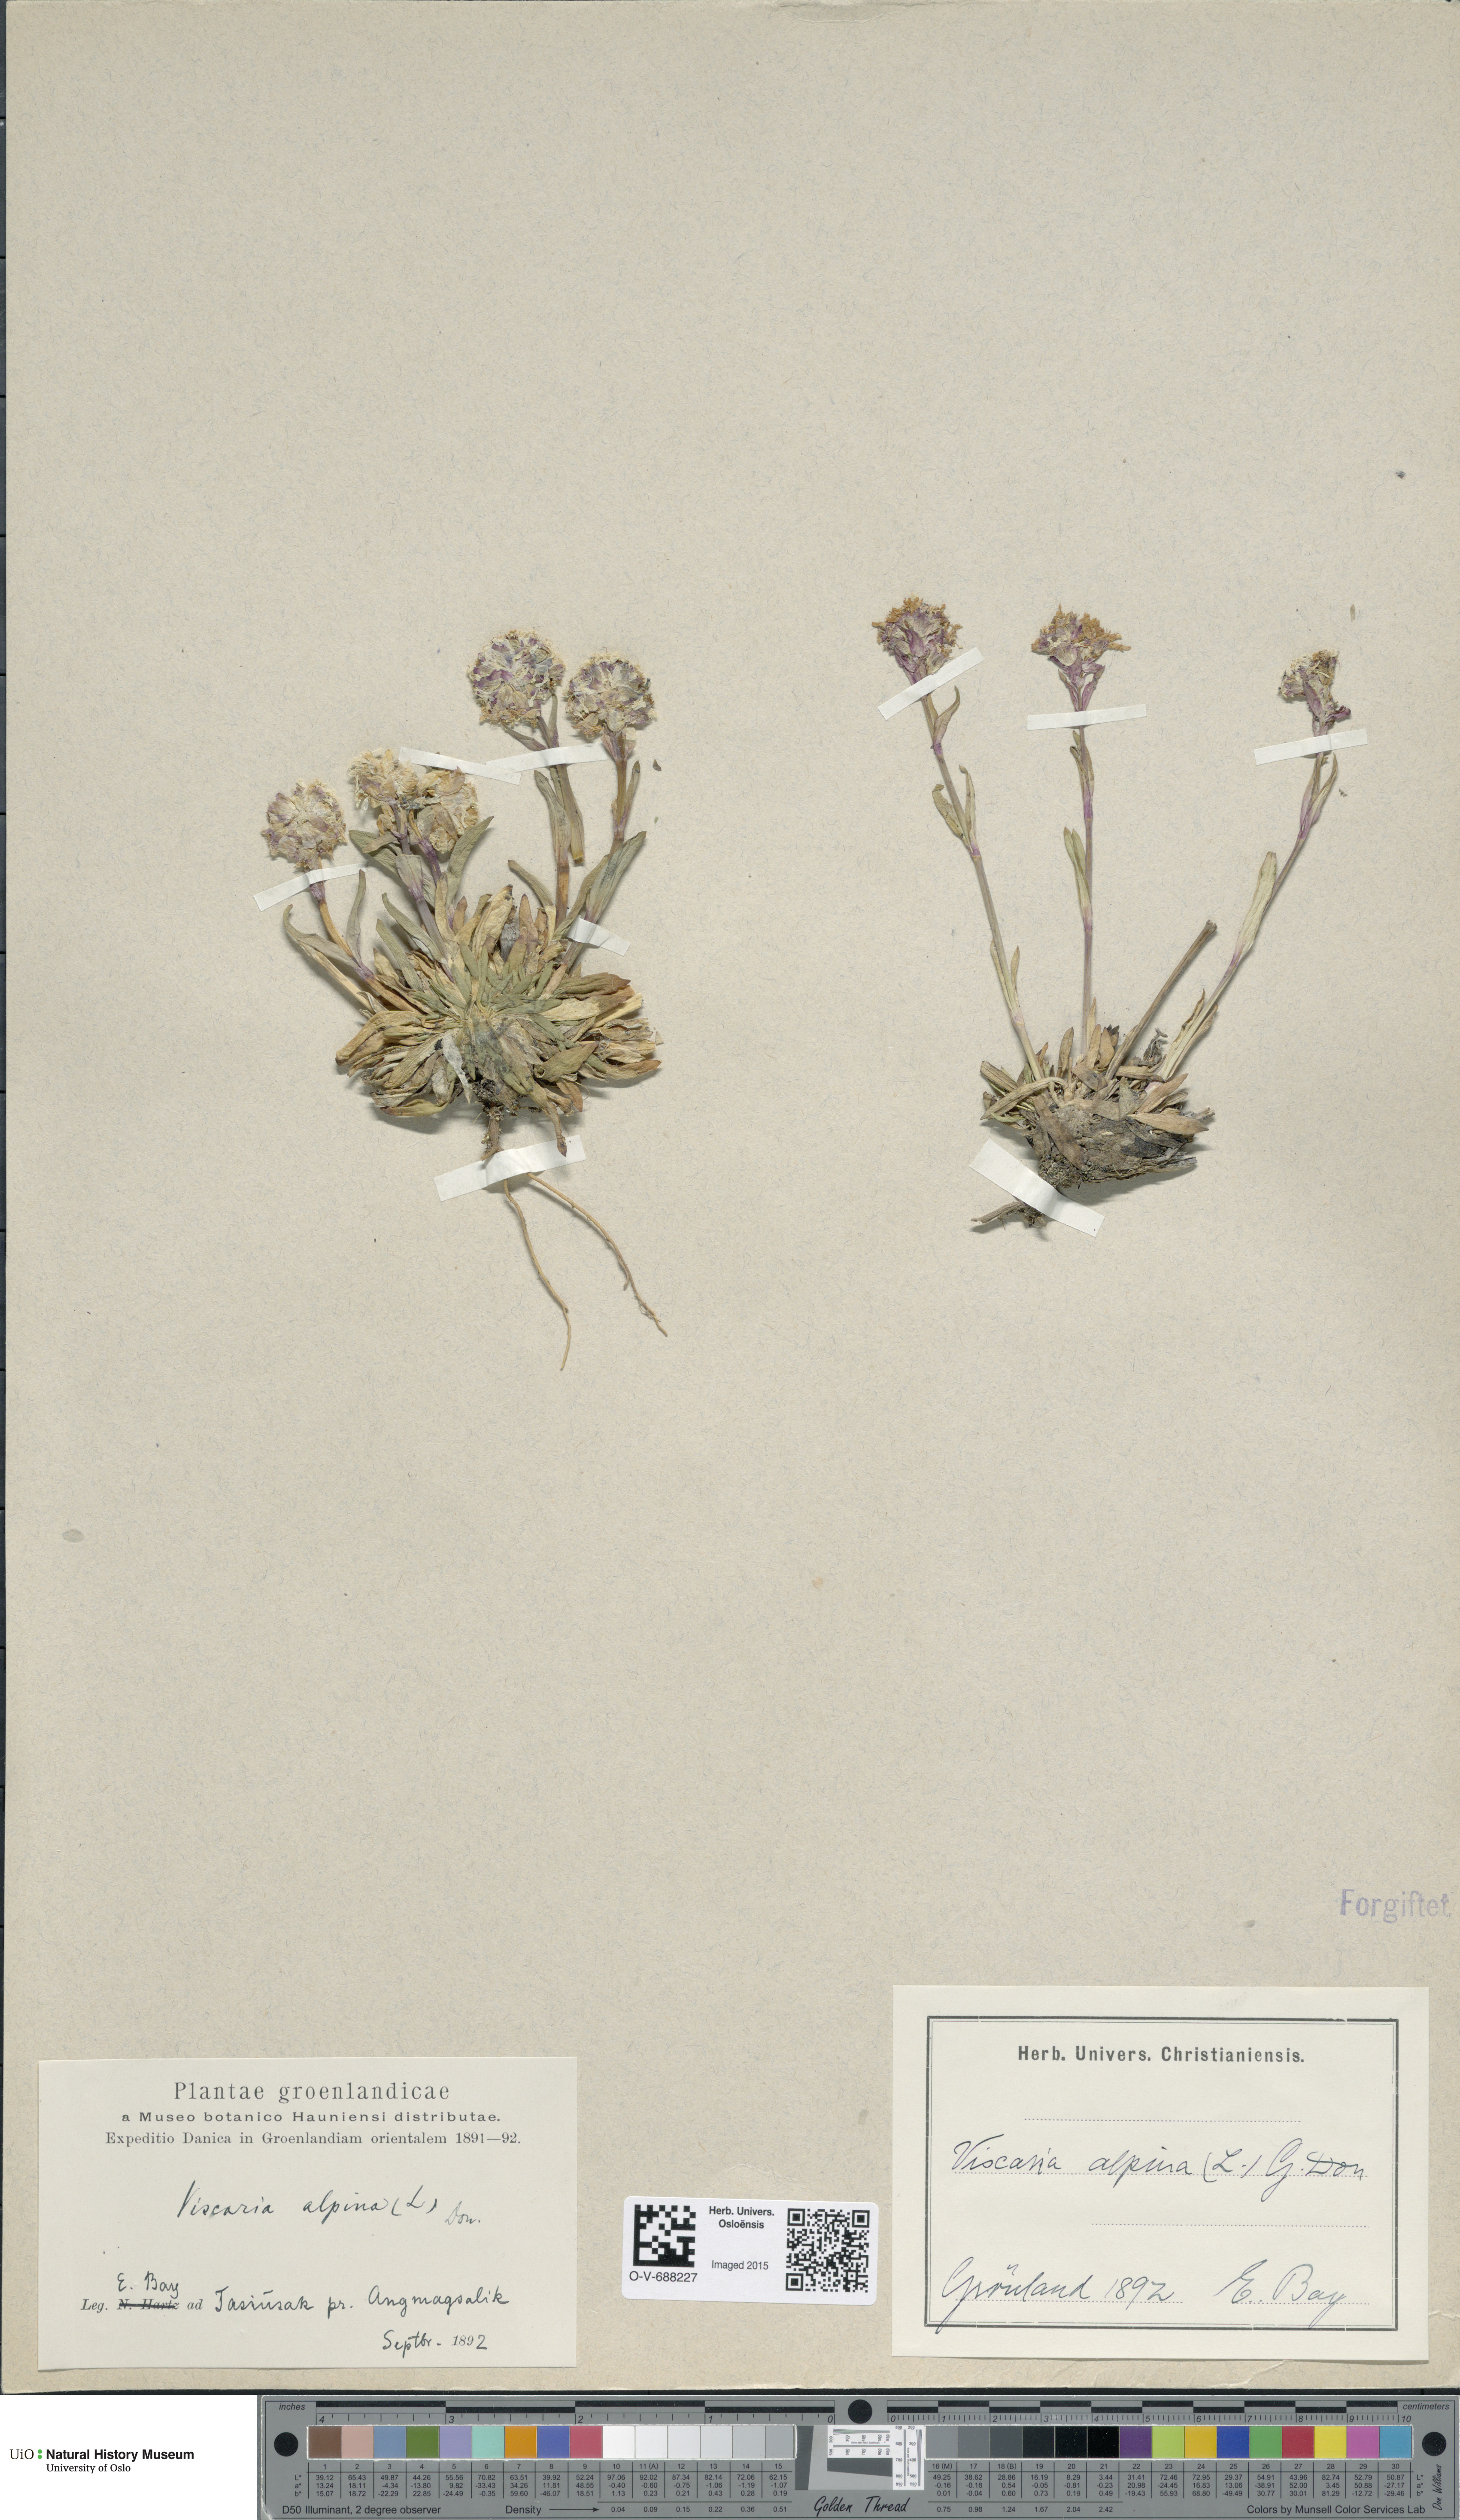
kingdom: Plantae
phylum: Tracheophyta
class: Magnoliopsida
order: Caryophyllales
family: Caryophyllaceae
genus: Viscaria
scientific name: Viscaria alpina
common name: Alpine campion
